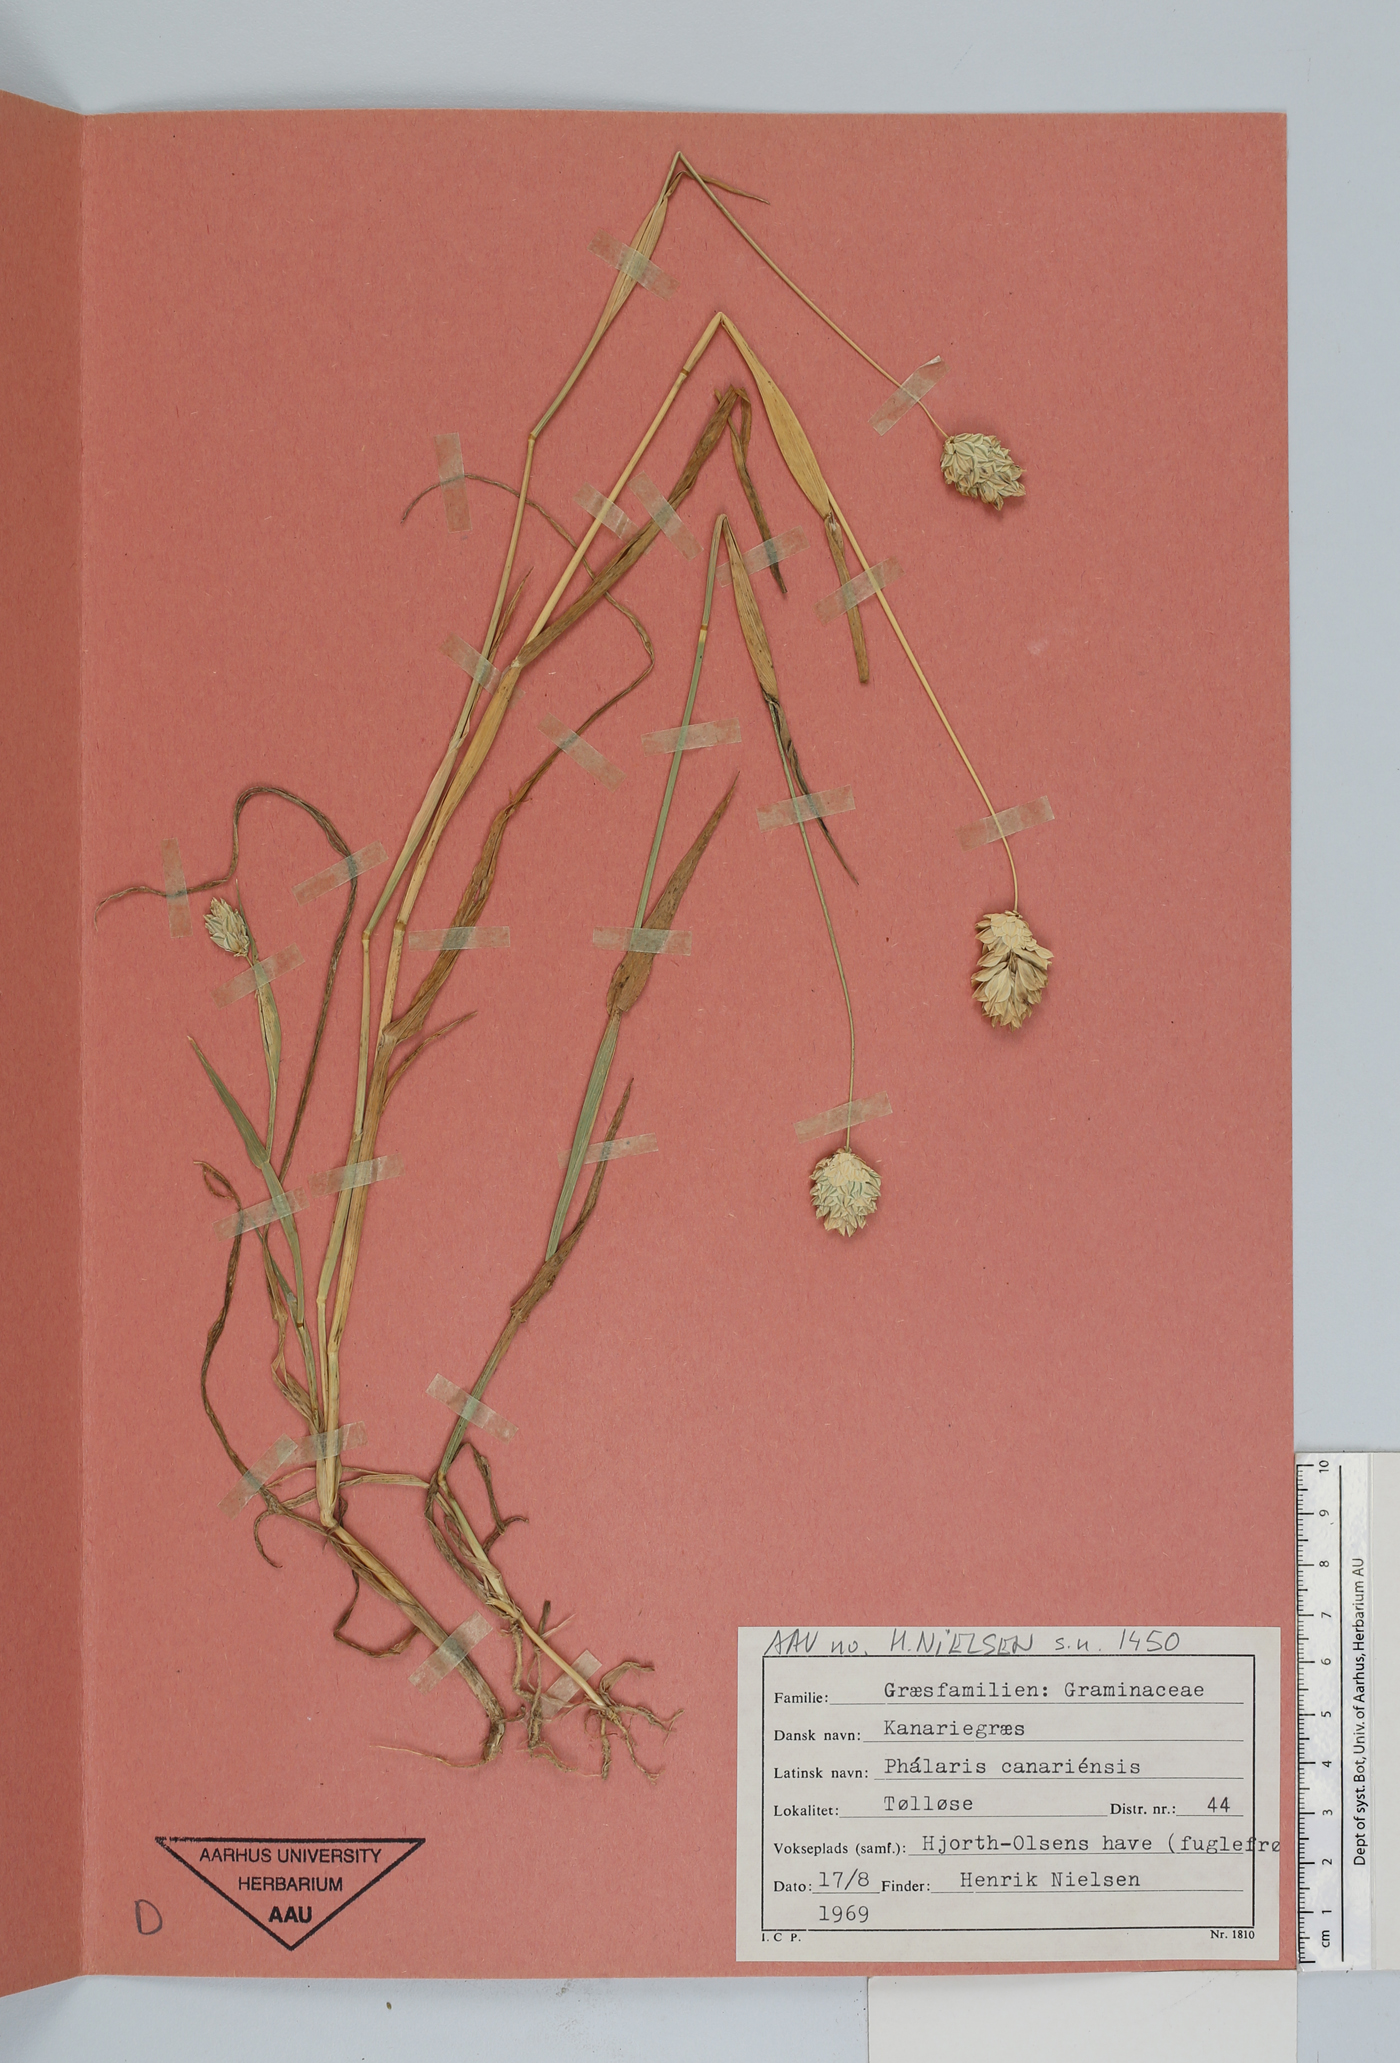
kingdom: Plantae
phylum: Tracheophyta
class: Liliopsida
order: Poales
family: Poaceae
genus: Phalaris
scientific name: Phalaris canariensis
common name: Annual canarygrass
